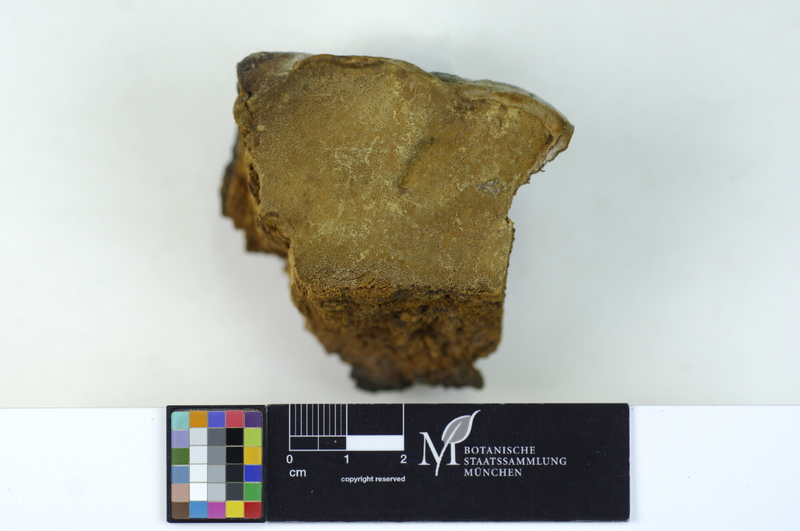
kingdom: Fungi
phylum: Basidiomycota
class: Agaricomycetes
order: Hymenochaetales
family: Hymenochaetaceae
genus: Phellinus
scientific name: Phellinus rimosus
